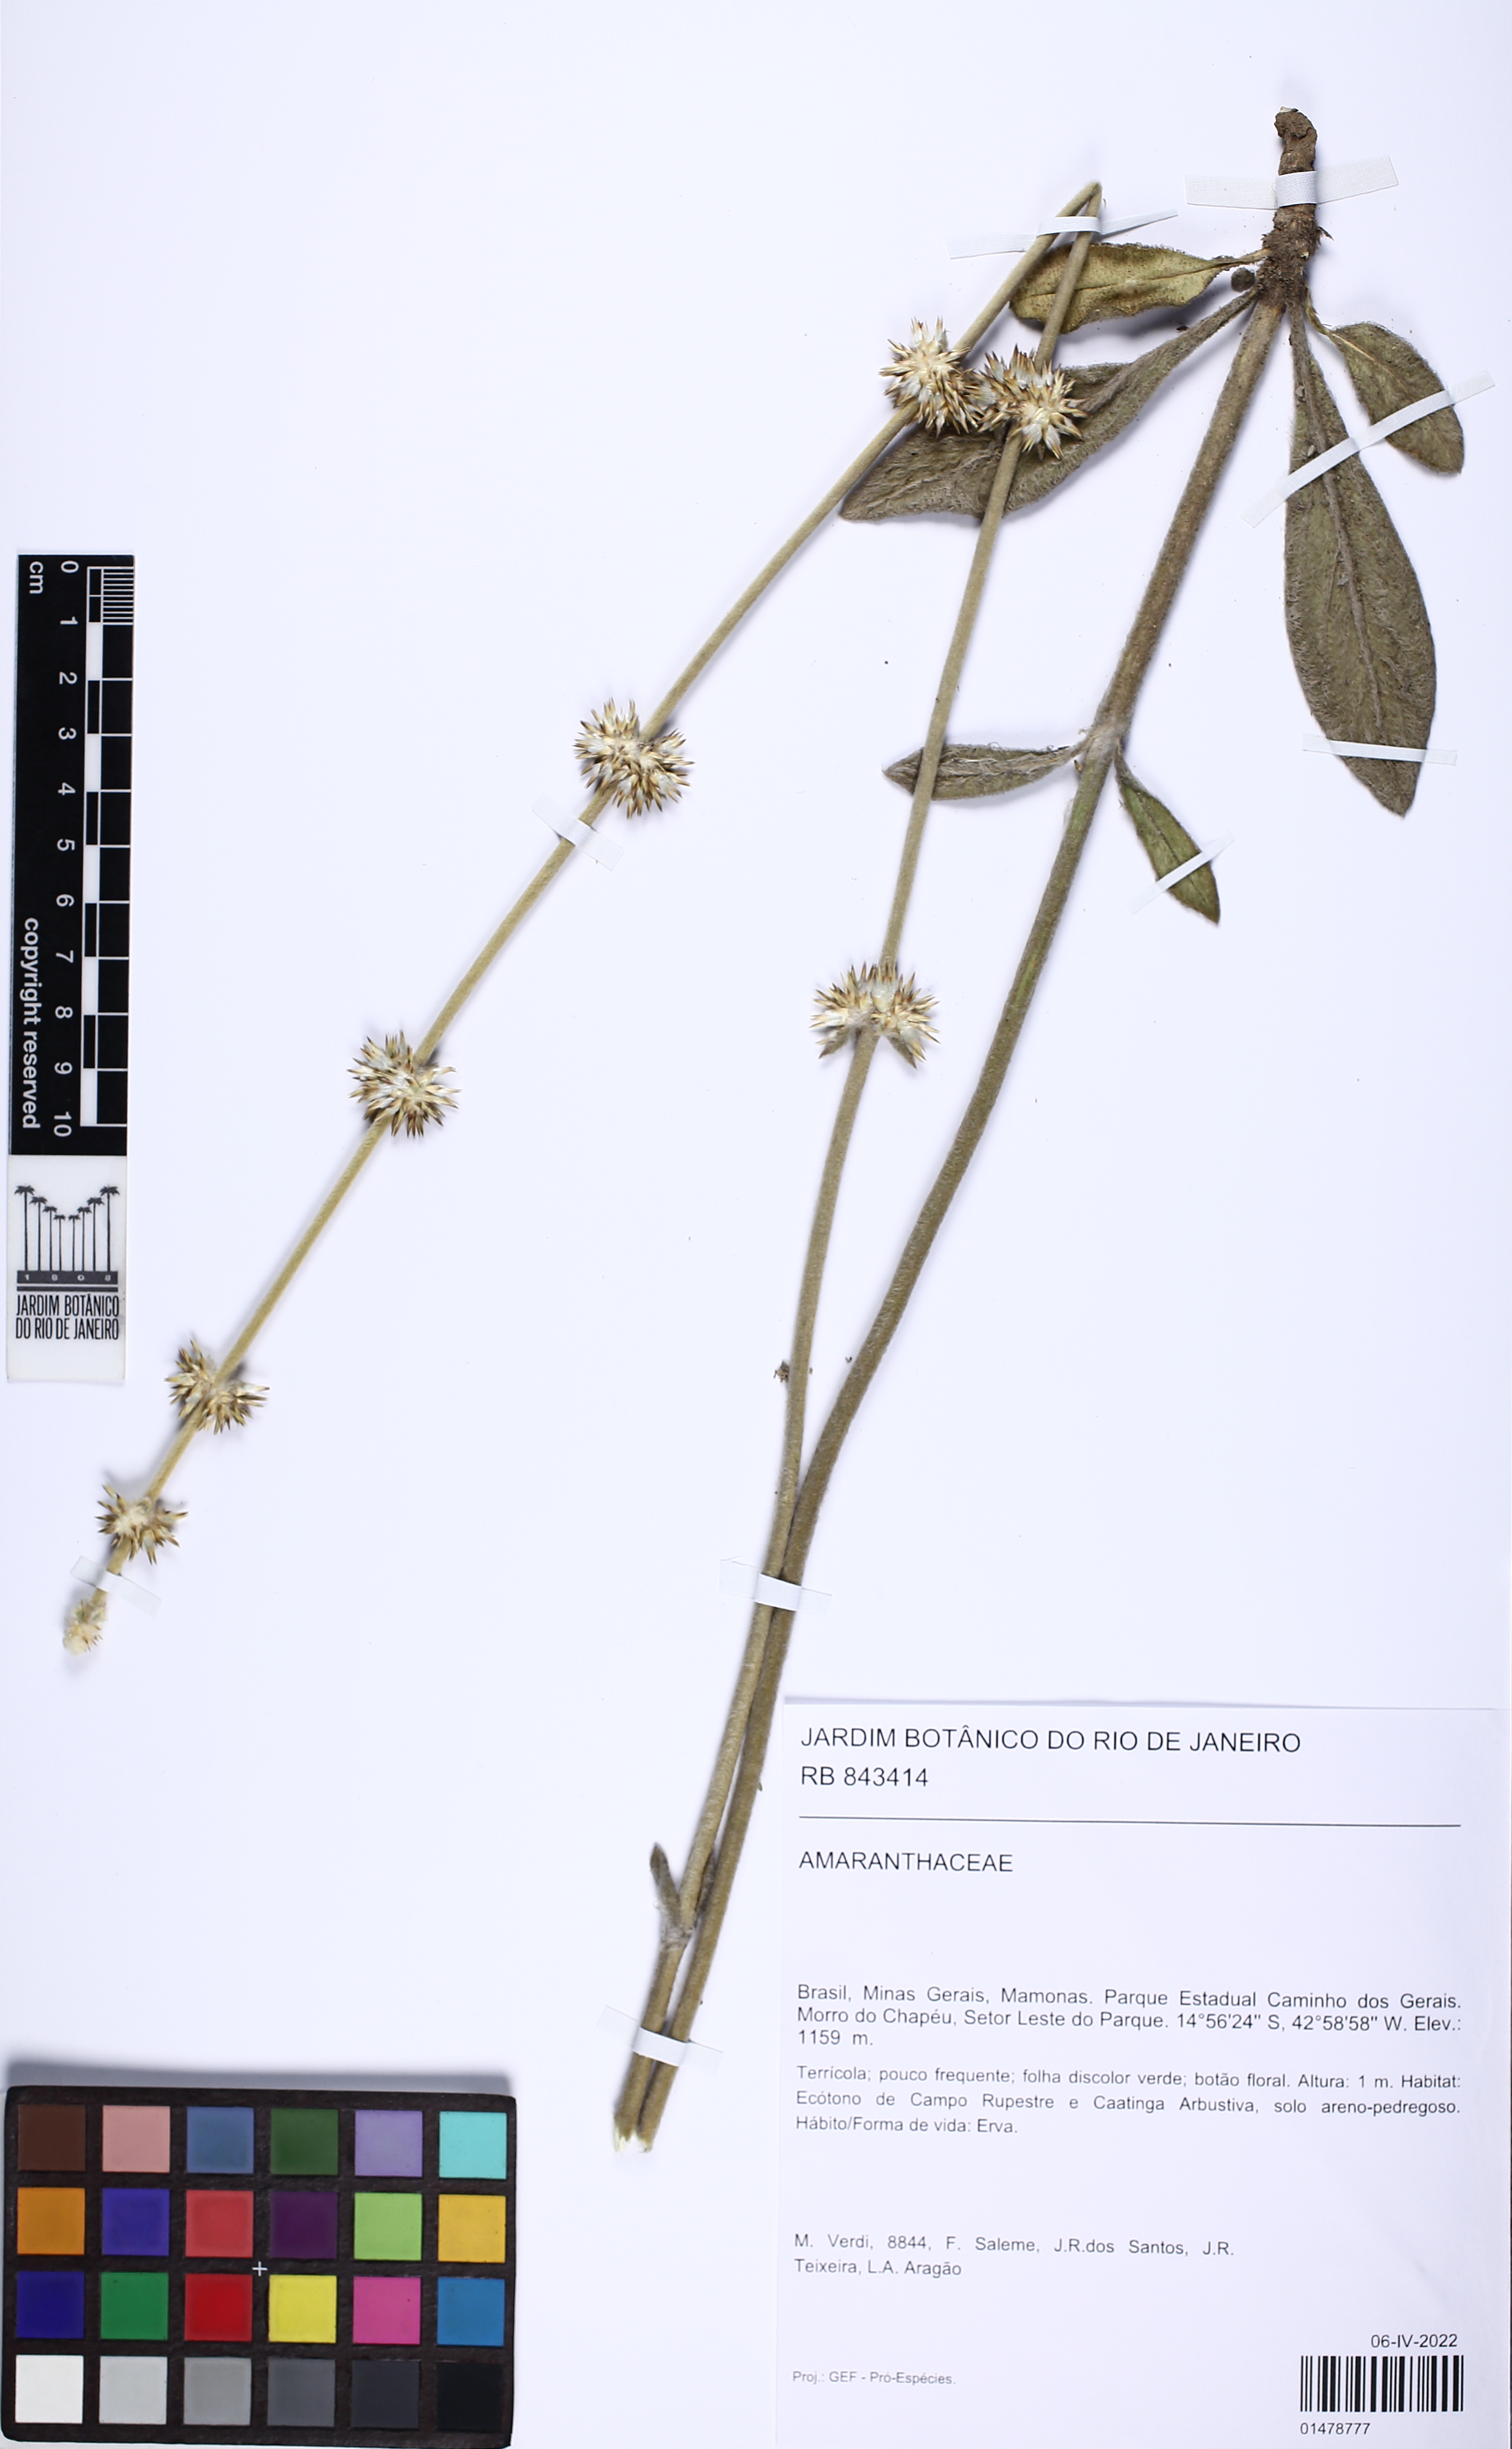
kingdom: Plantae
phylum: Tracheophyta
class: Magnoliopsida
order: Caryophyllales
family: Amaranthaceae
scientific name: Amaranthaceae
